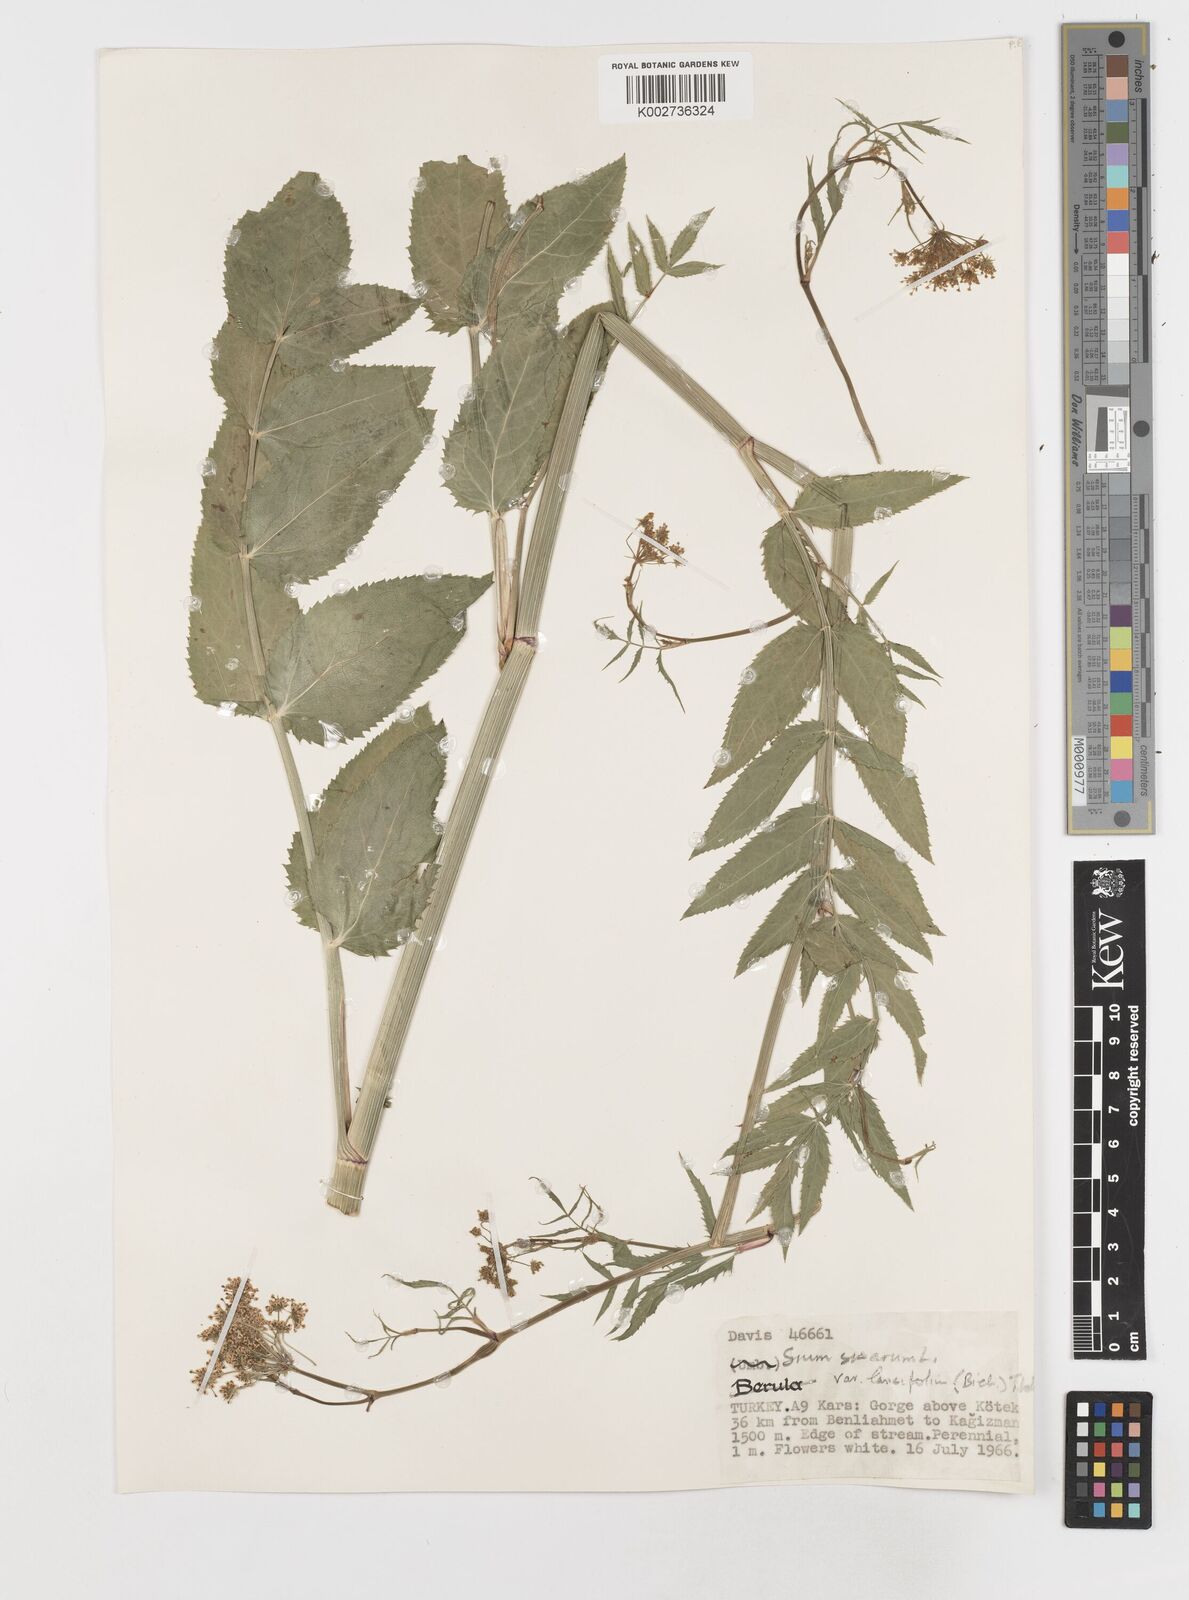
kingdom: Plantae
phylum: Tracheophyta
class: Magnoliopsida
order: Apiales
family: Apiaceae
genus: Sium
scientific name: Sium sisarum
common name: Skirret
